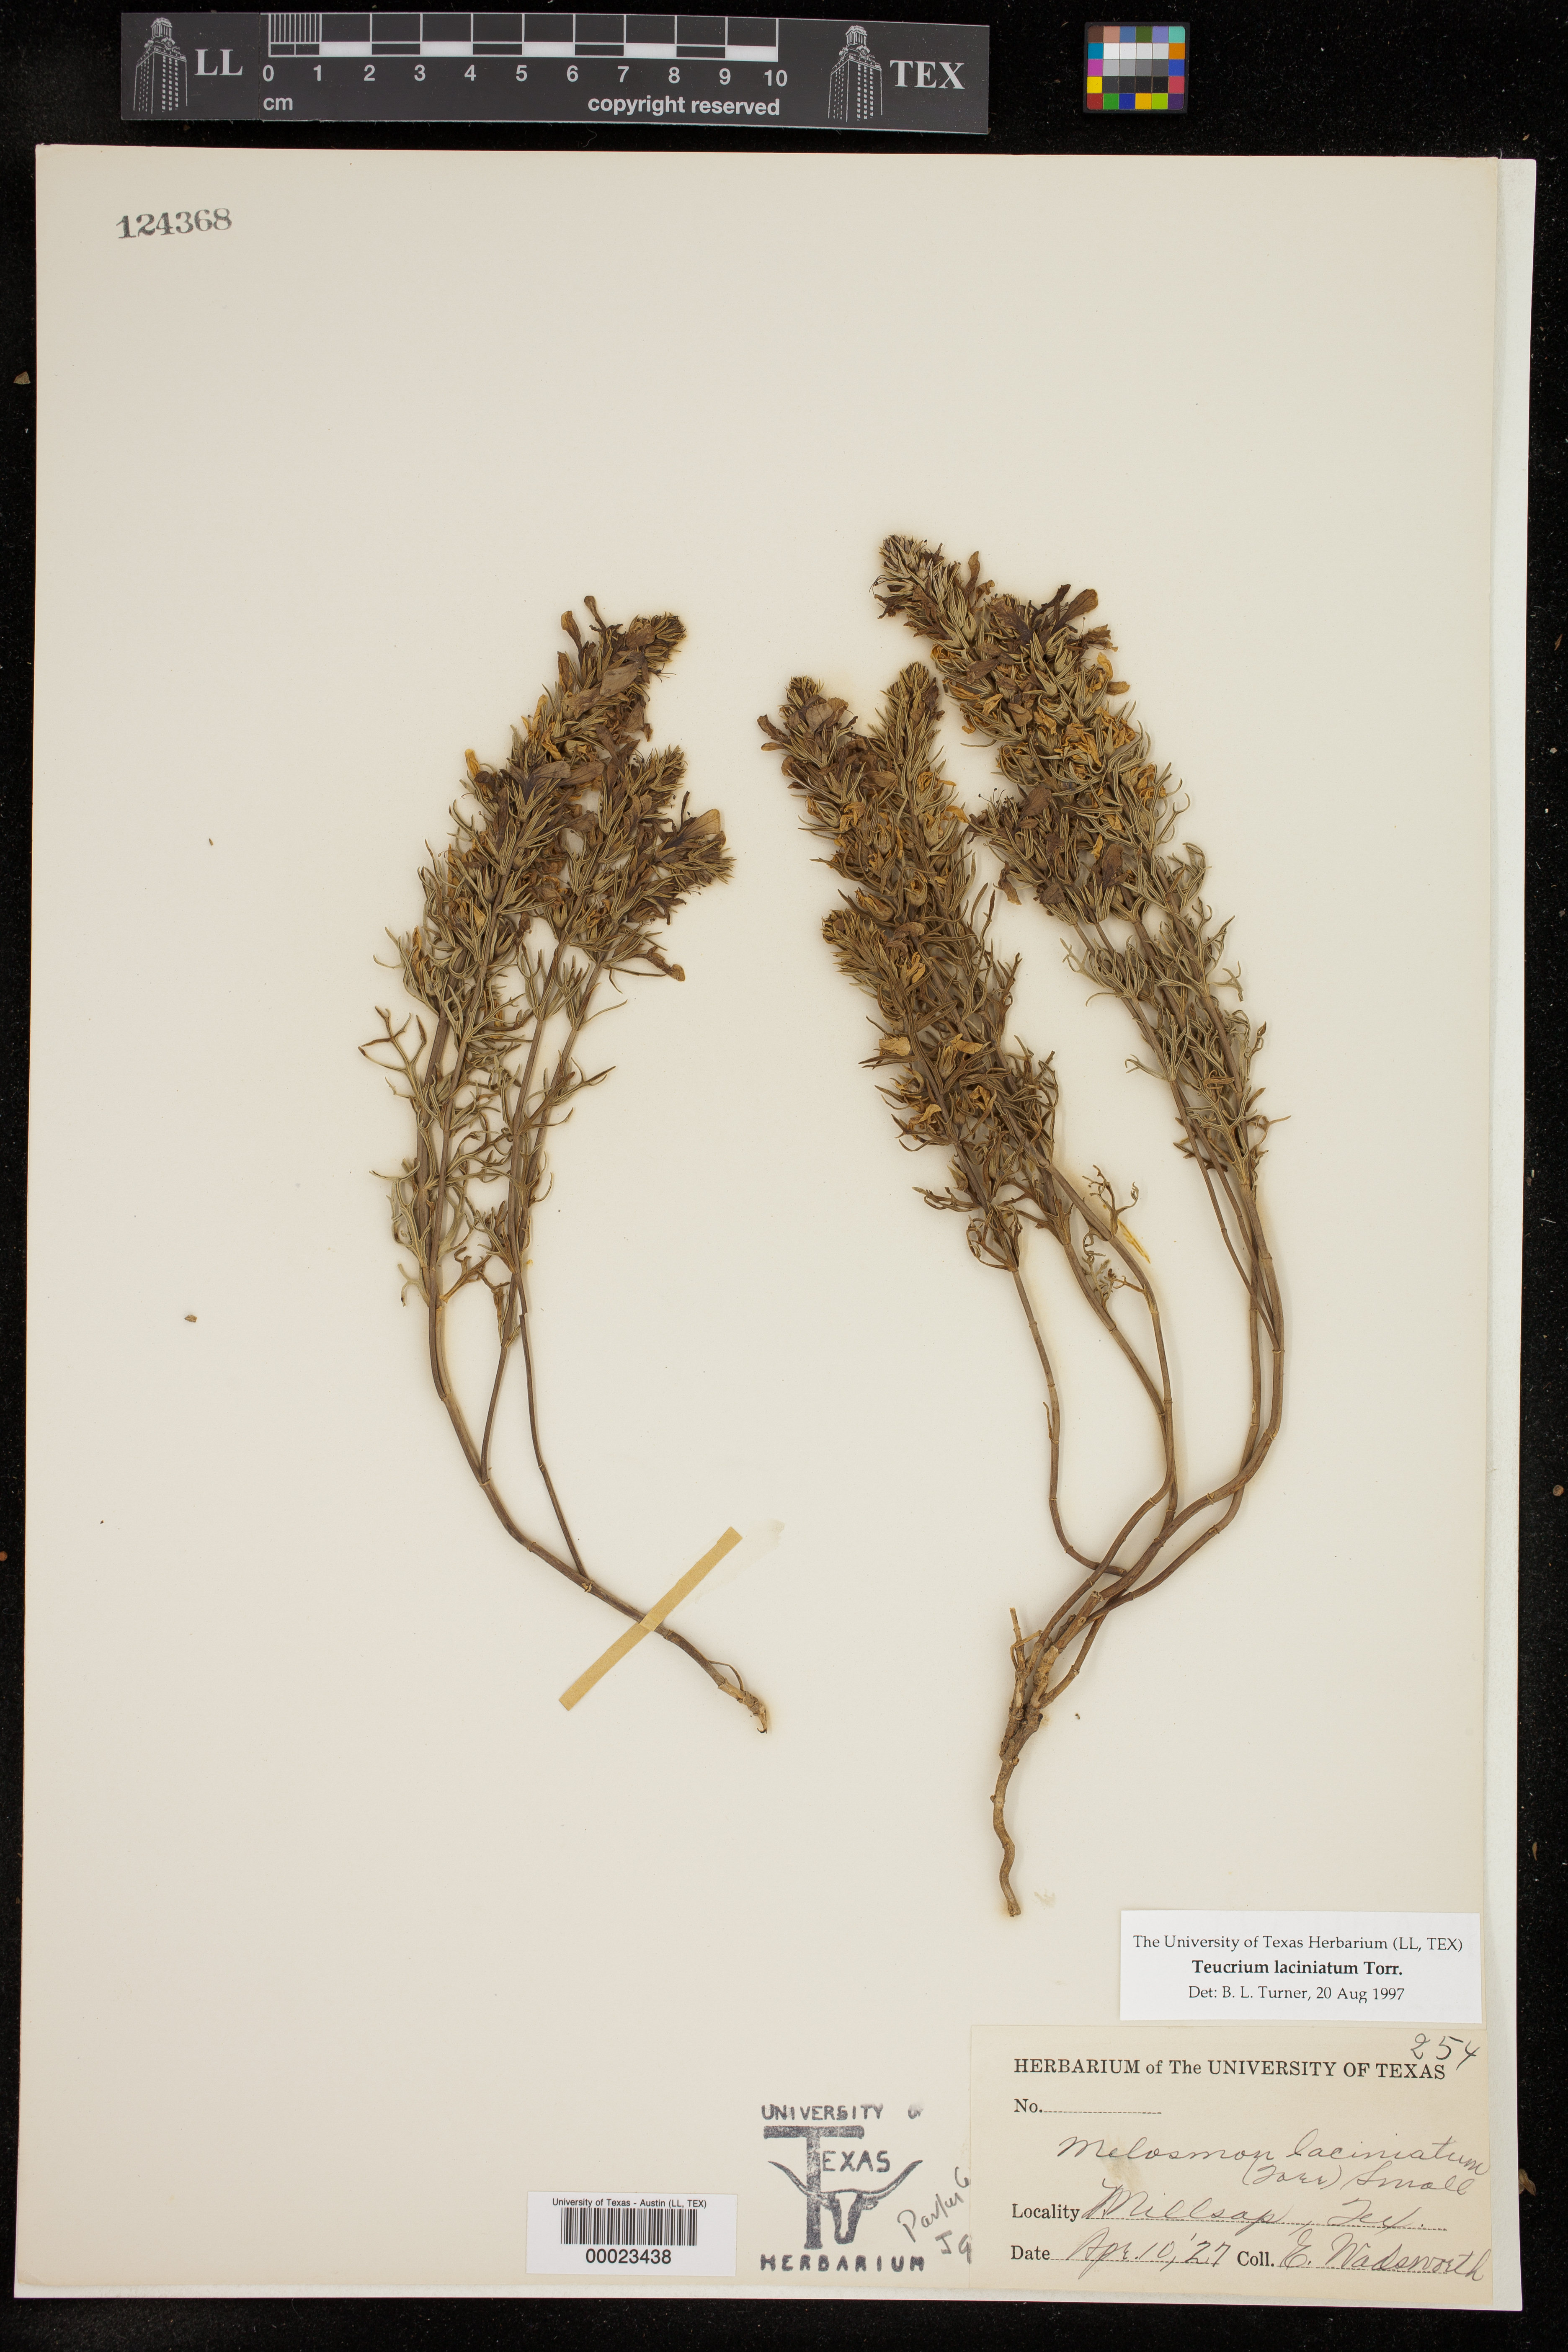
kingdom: Plantae
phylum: Tracheophyta
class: Magnoliopsida
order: Lamiales
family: Lamiaceae
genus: Teucrium
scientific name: Teucrium laciniatum
